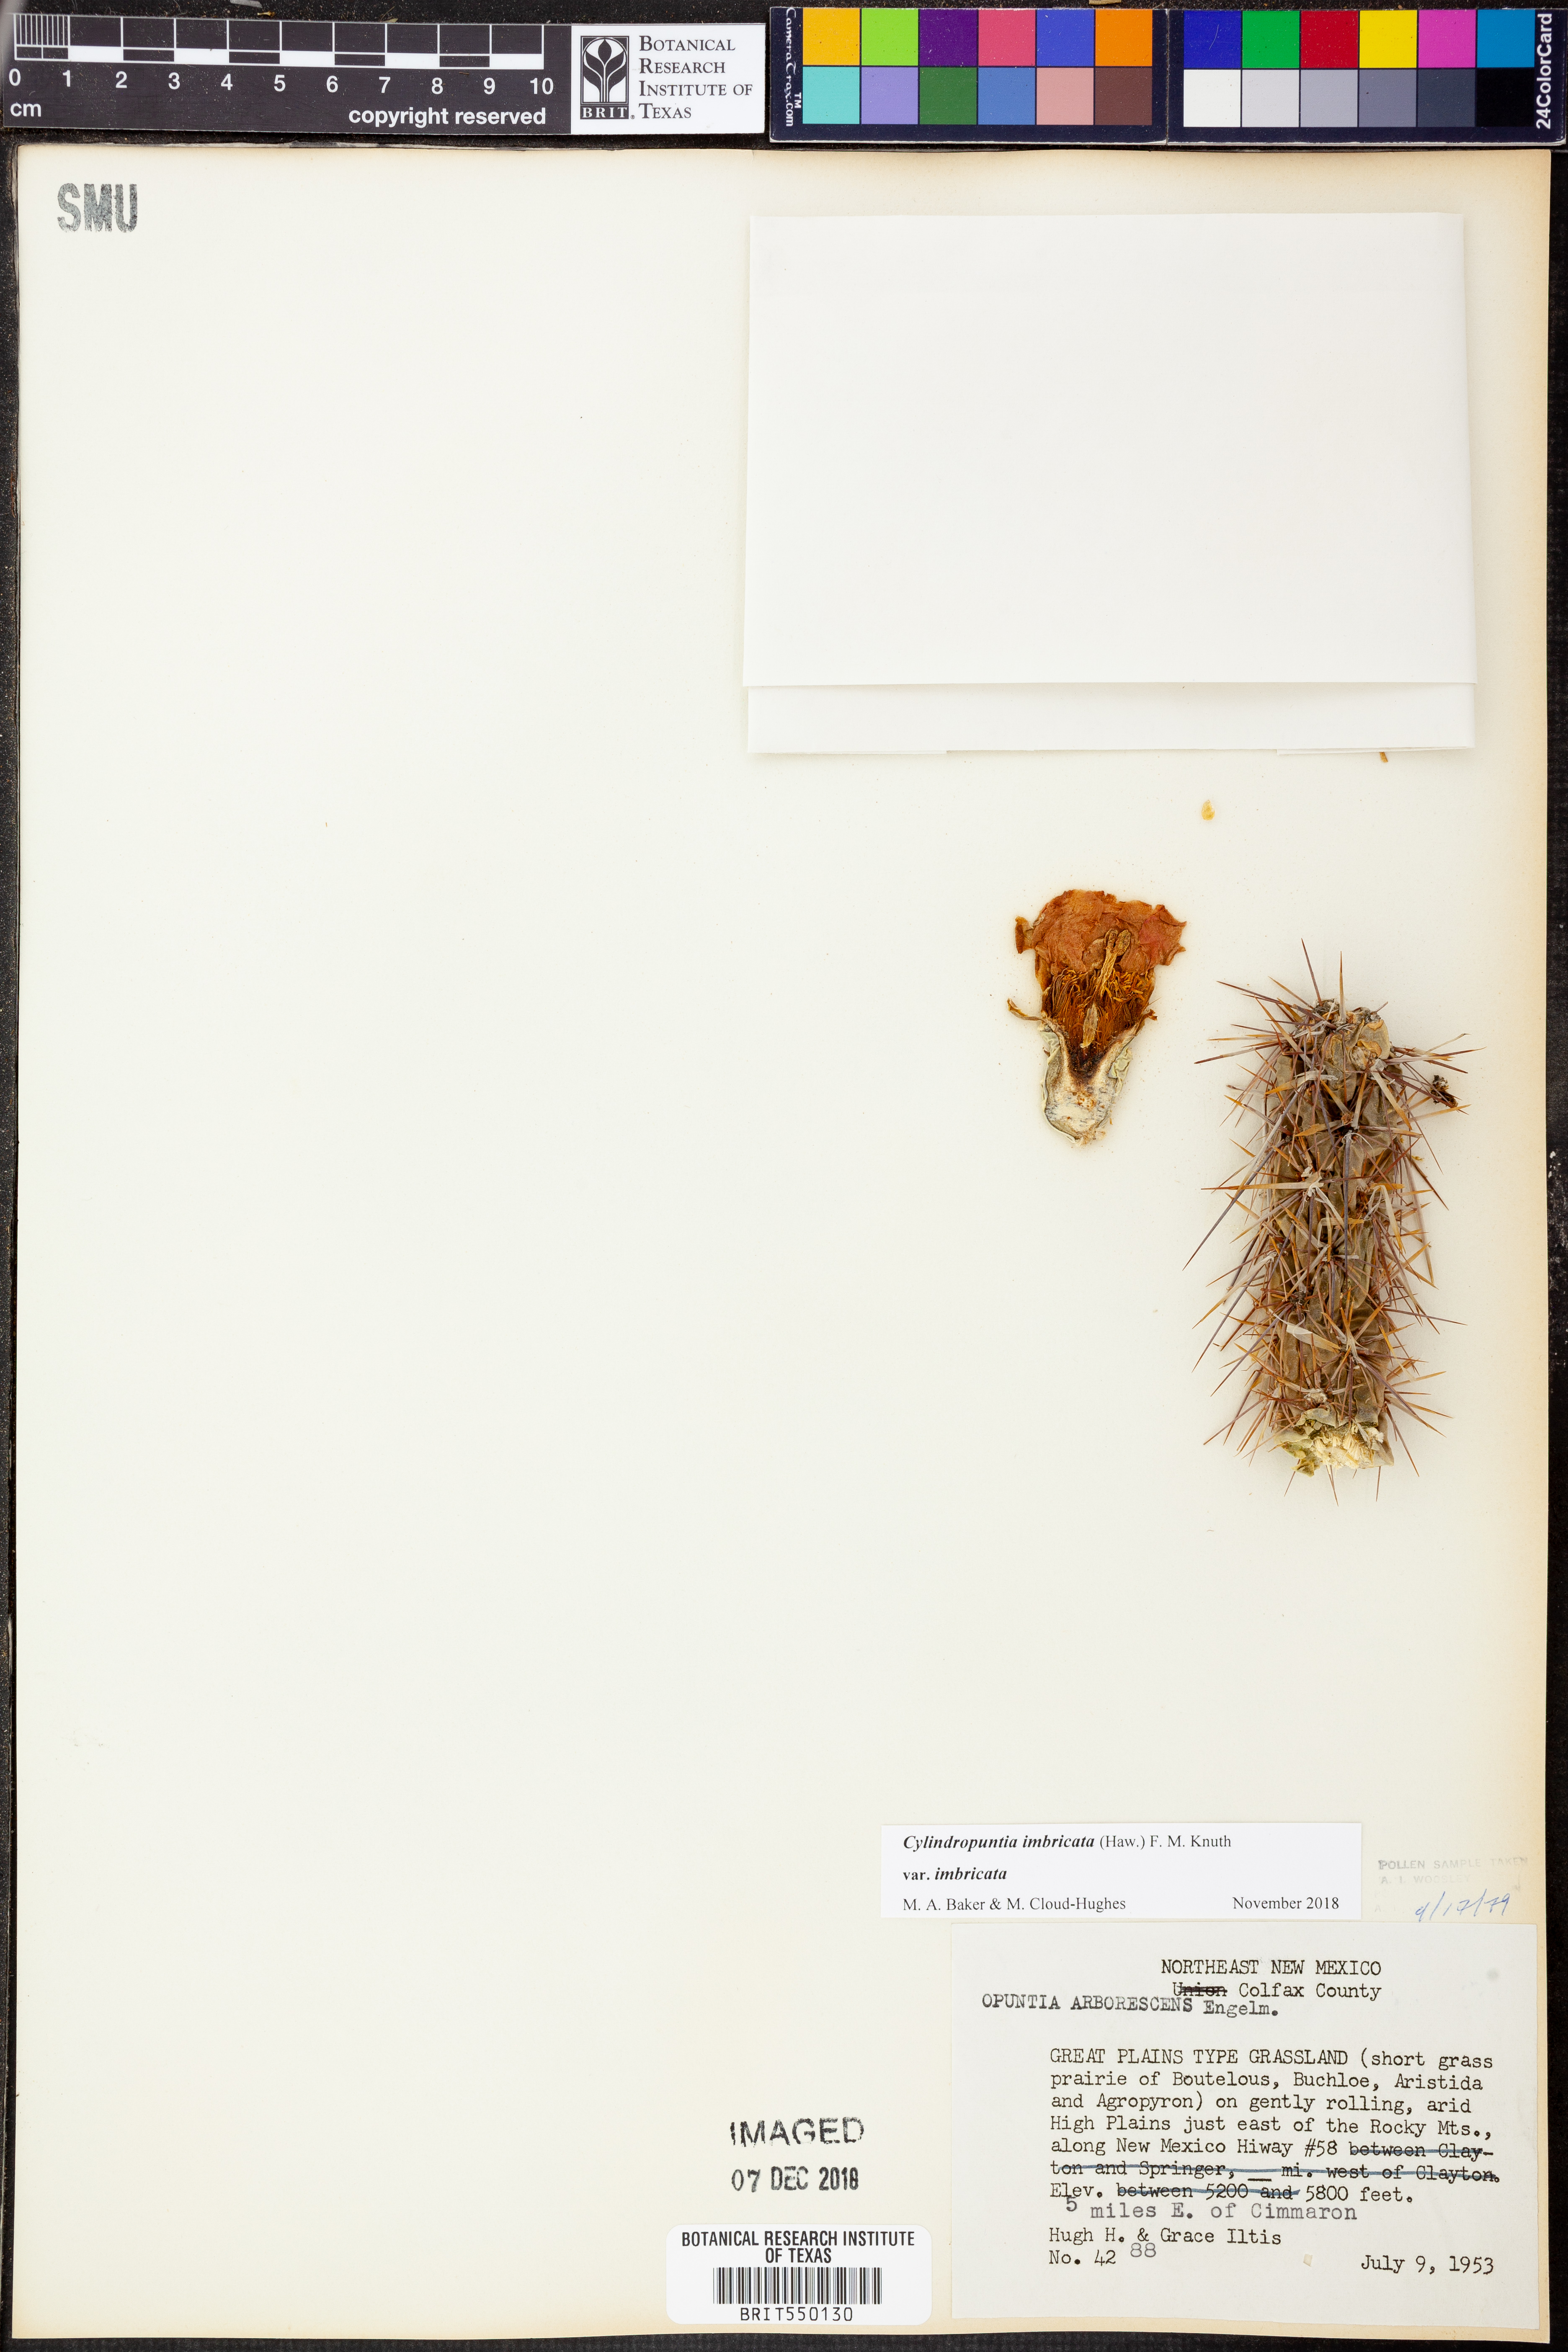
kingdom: Plantae
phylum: Tracheophyta
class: Magnoliopsida
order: Caryophyllales
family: Cactaceae
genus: Cylindropuntia
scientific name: Cylindropuntia imbricata
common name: Candelabrum cactus
